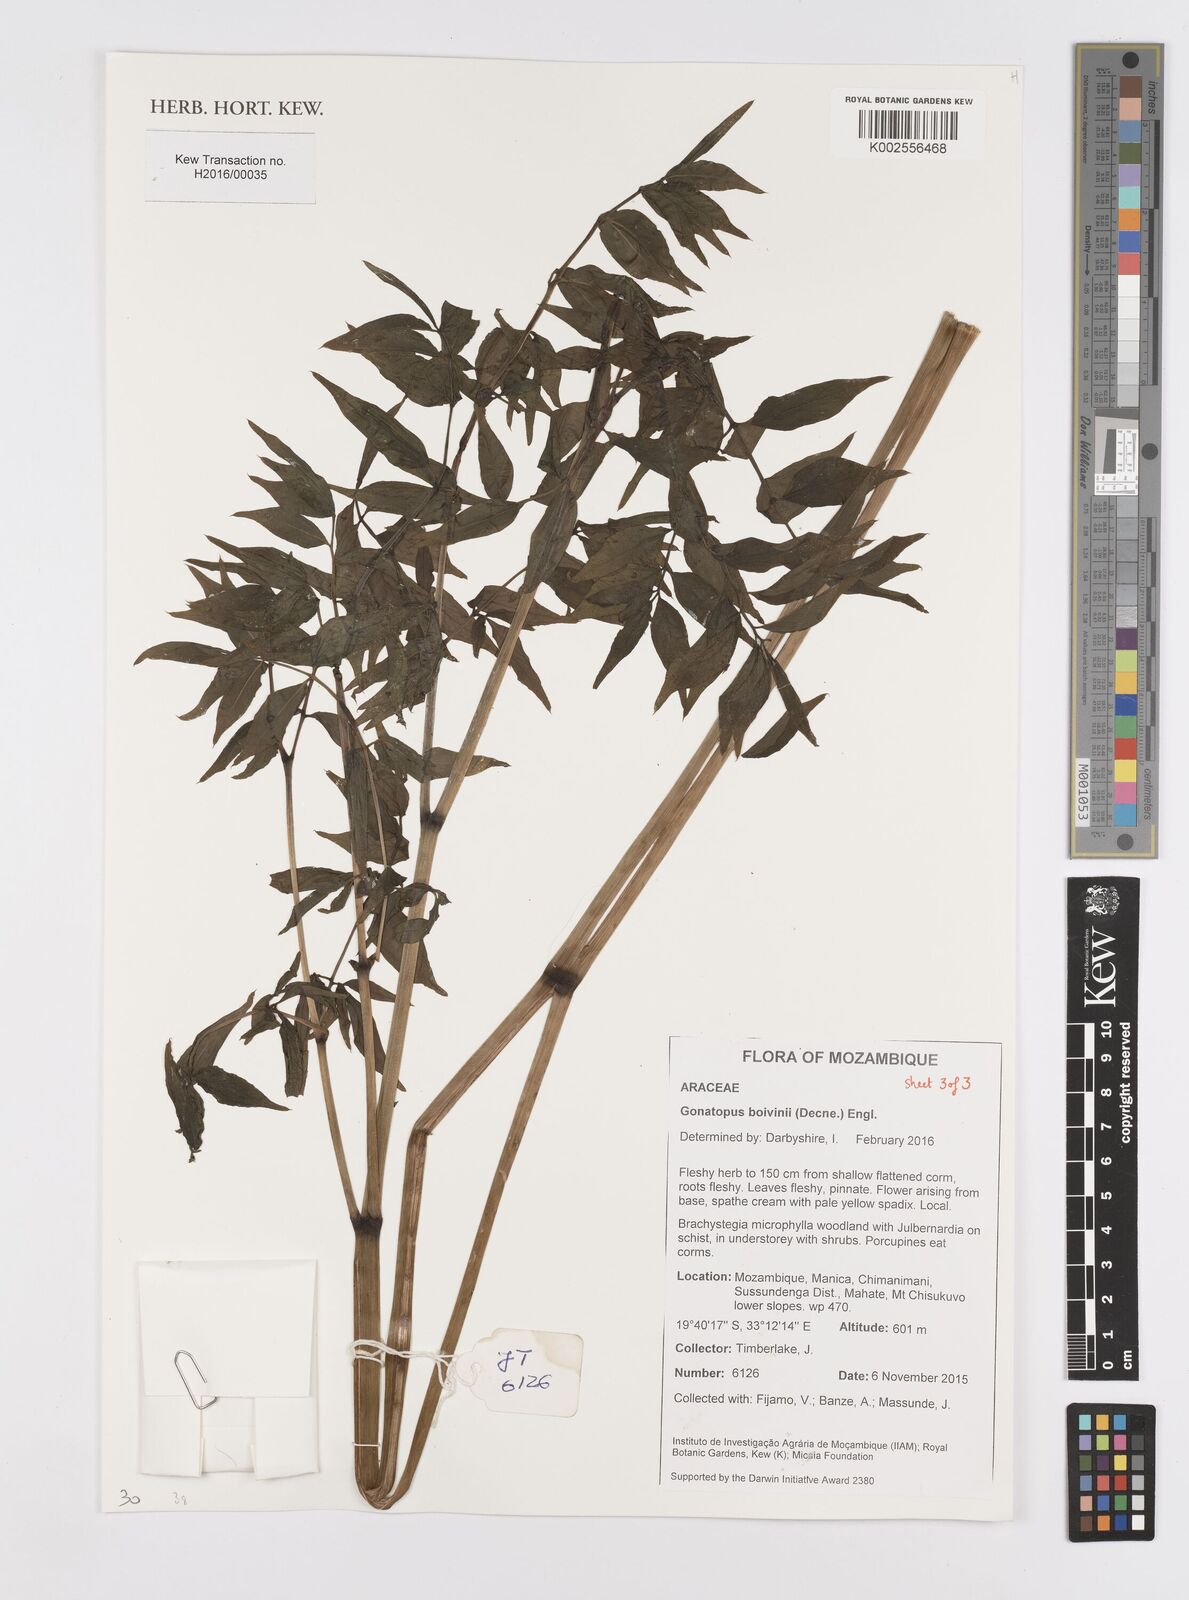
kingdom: Plantae
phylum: Tracheophyta
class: Liliopsida
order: Alismatales
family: Araceae
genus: Gonatopus
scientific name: Gonatopus boivinii
